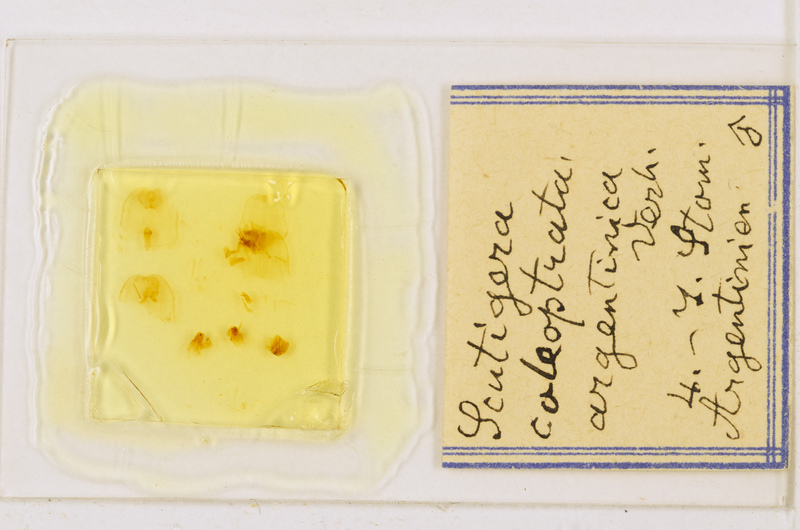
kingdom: Animalia
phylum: Arthropoda
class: Chilopoda
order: Scutigeromorpha
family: Scutigeridae
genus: Scutigera
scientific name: Scutigera coleoptrata
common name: House centipede
